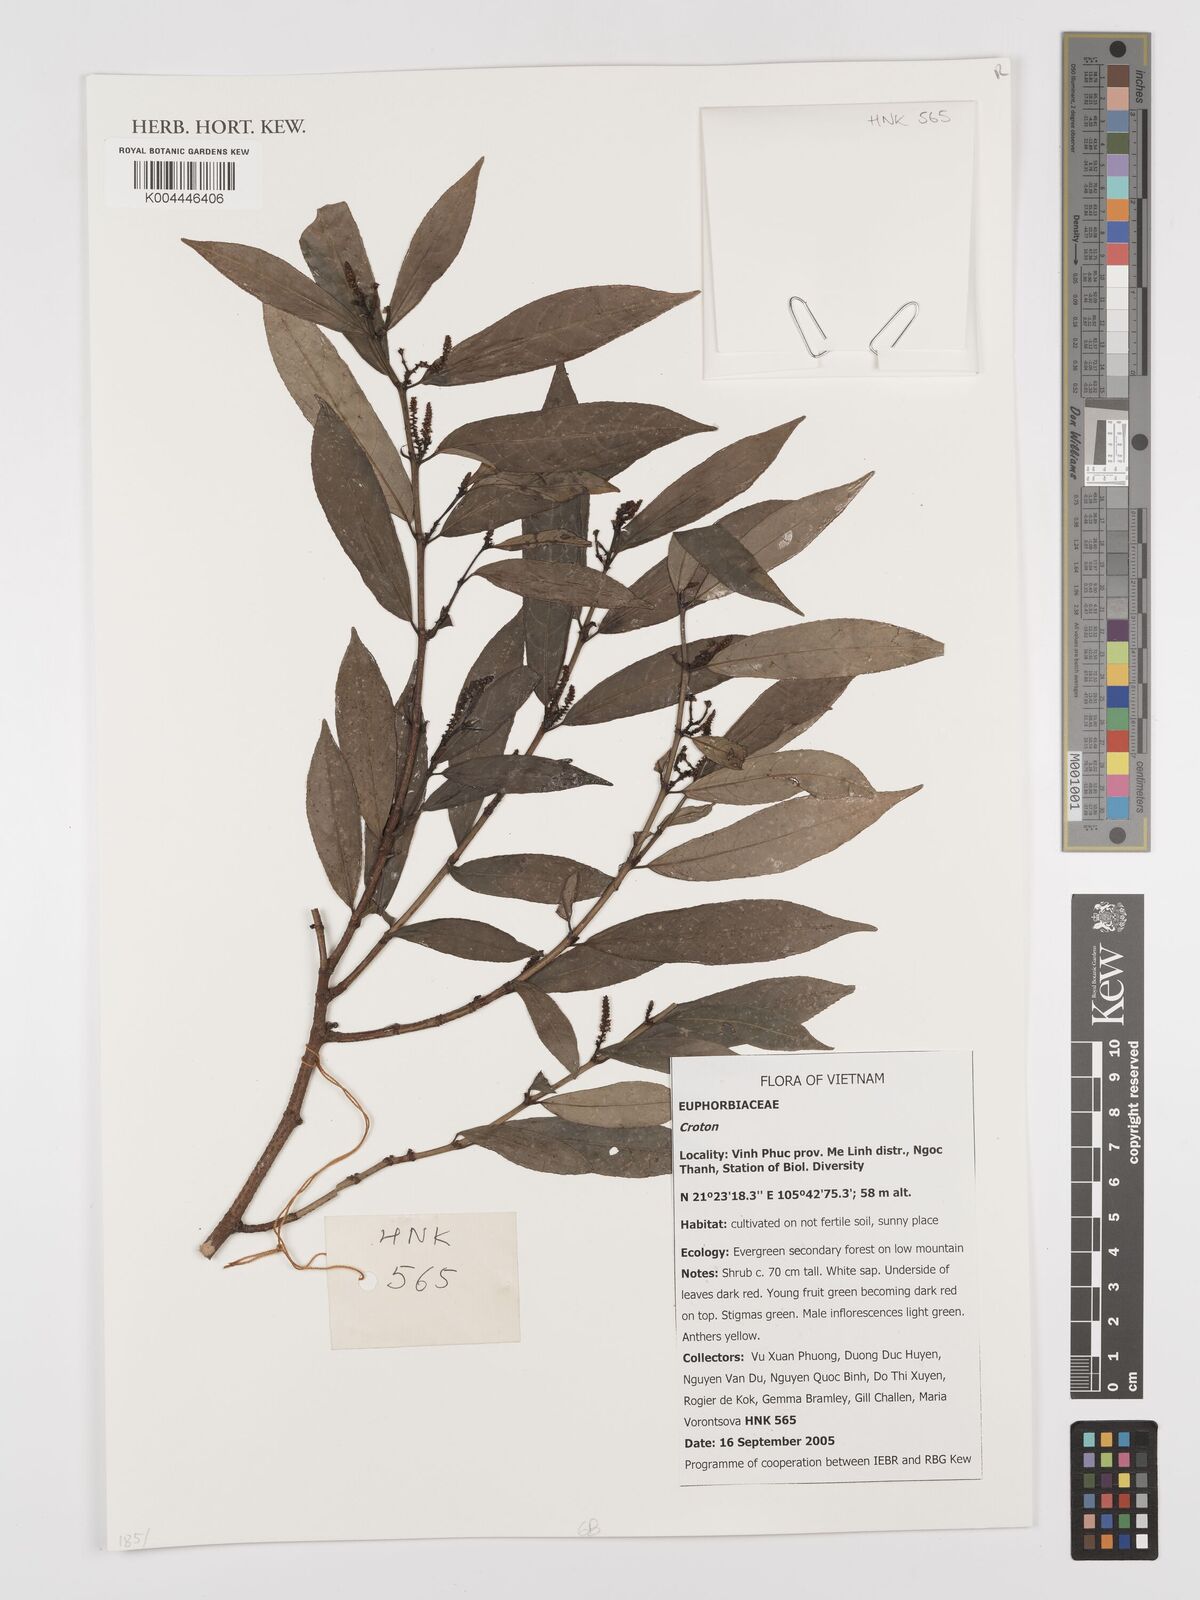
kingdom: Plantae
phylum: Tracheophyta
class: Magnoliopsida
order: Malpighiales
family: Euphorbiaceae
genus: Croton
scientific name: Croton
